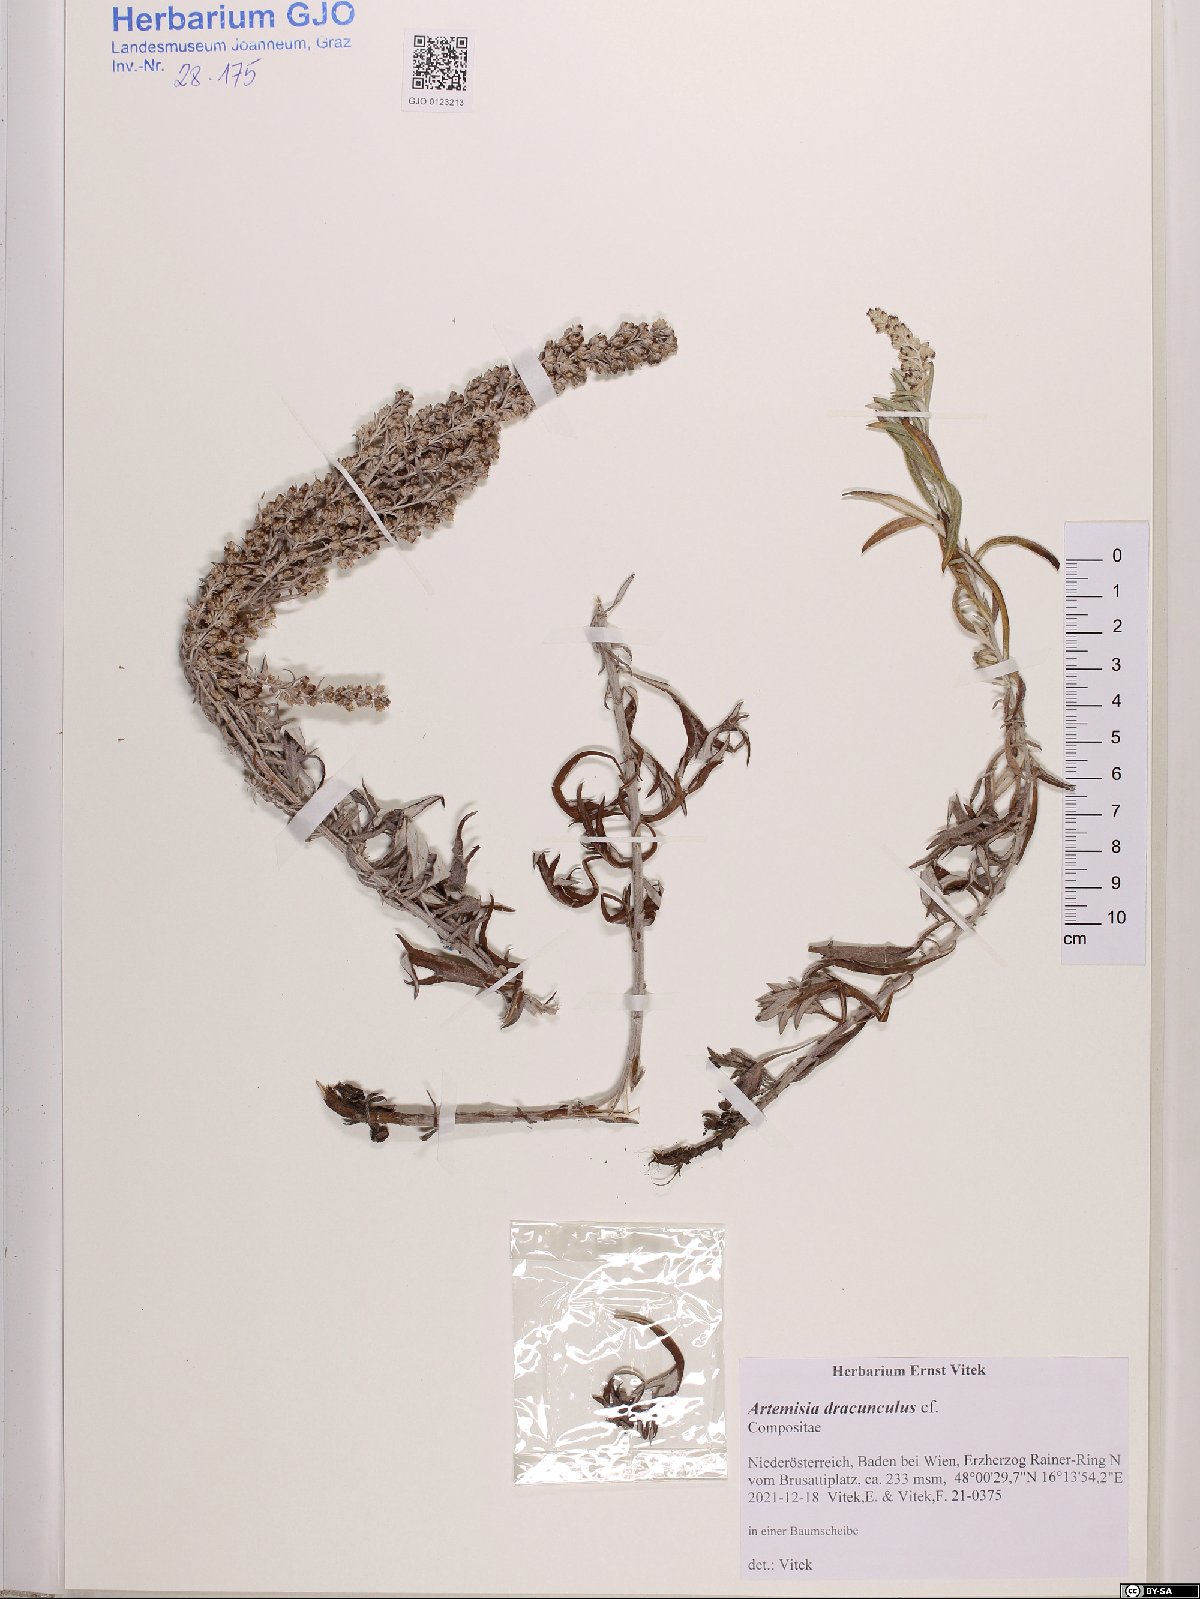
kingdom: Plantae
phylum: Tracheophyta
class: Magnoliopsida
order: Asterales
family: Asteraceae
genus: Artemisia
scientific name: Artemisia dracunculus
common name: Tarragon
